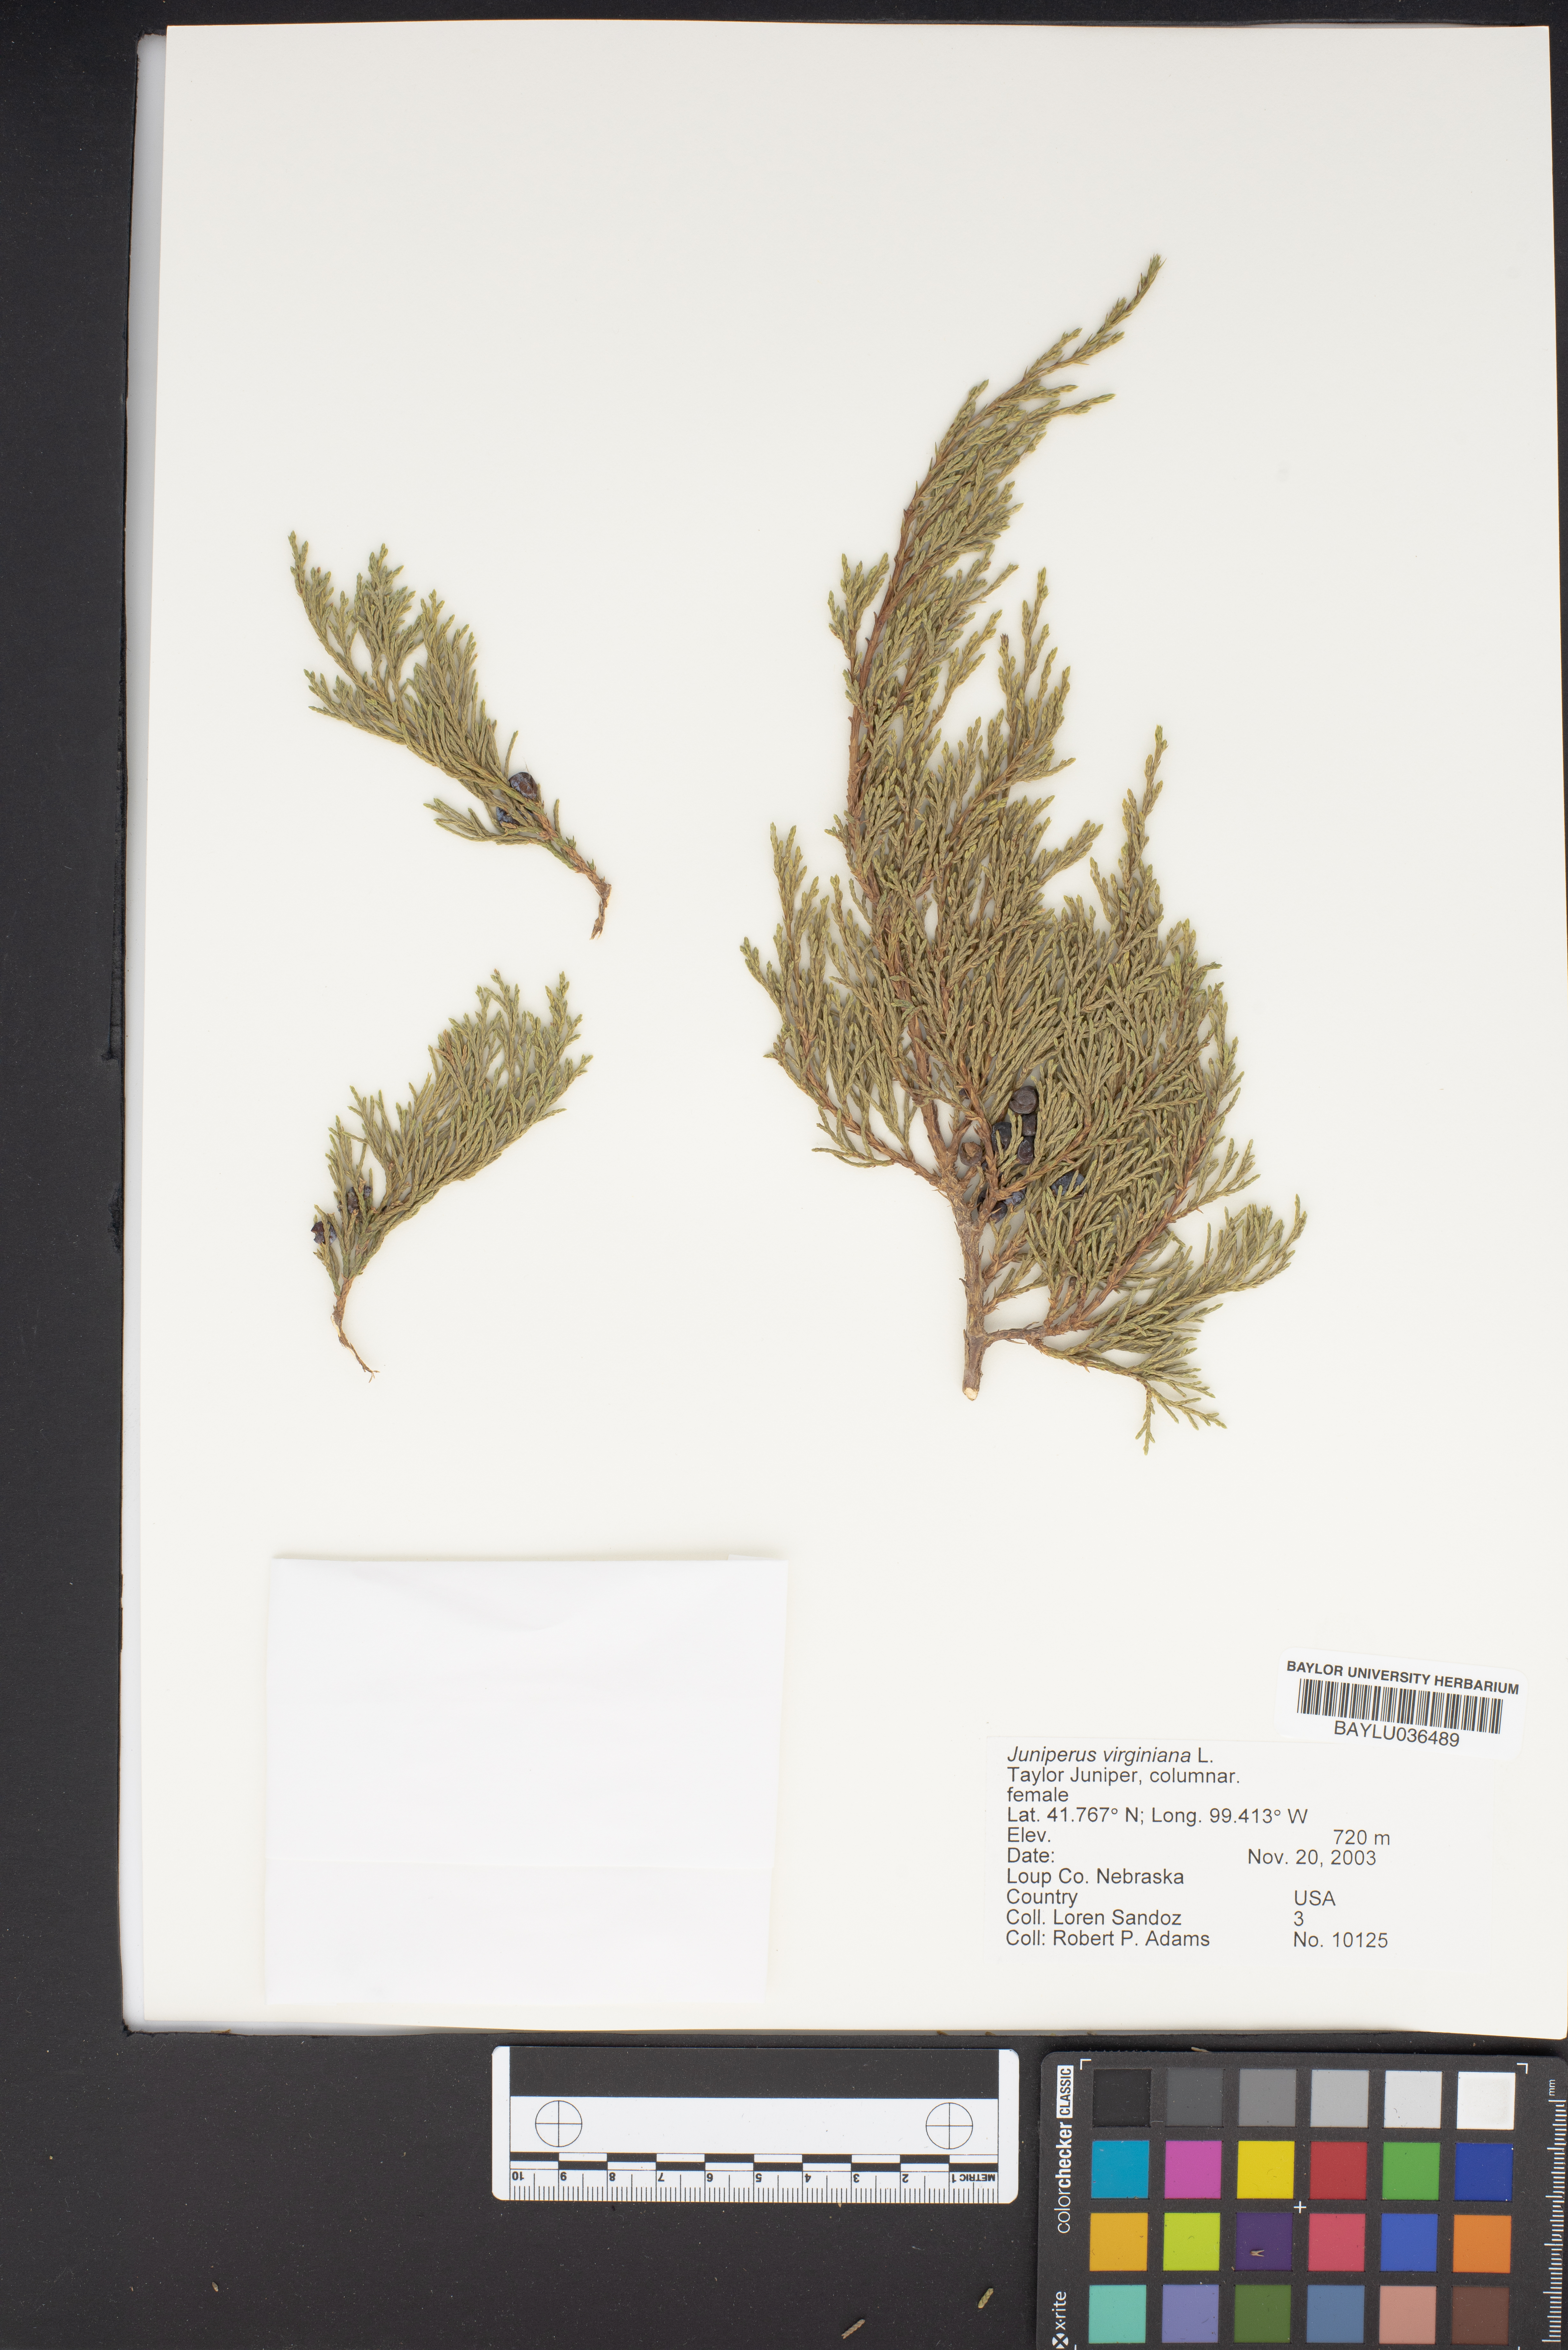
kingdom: Plantae
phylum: Tracheophyta
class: Pinopsida
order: Pinales
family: Cupressaceae
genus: Juniperus
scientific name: Juniperus virginiana
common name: Red juniper
